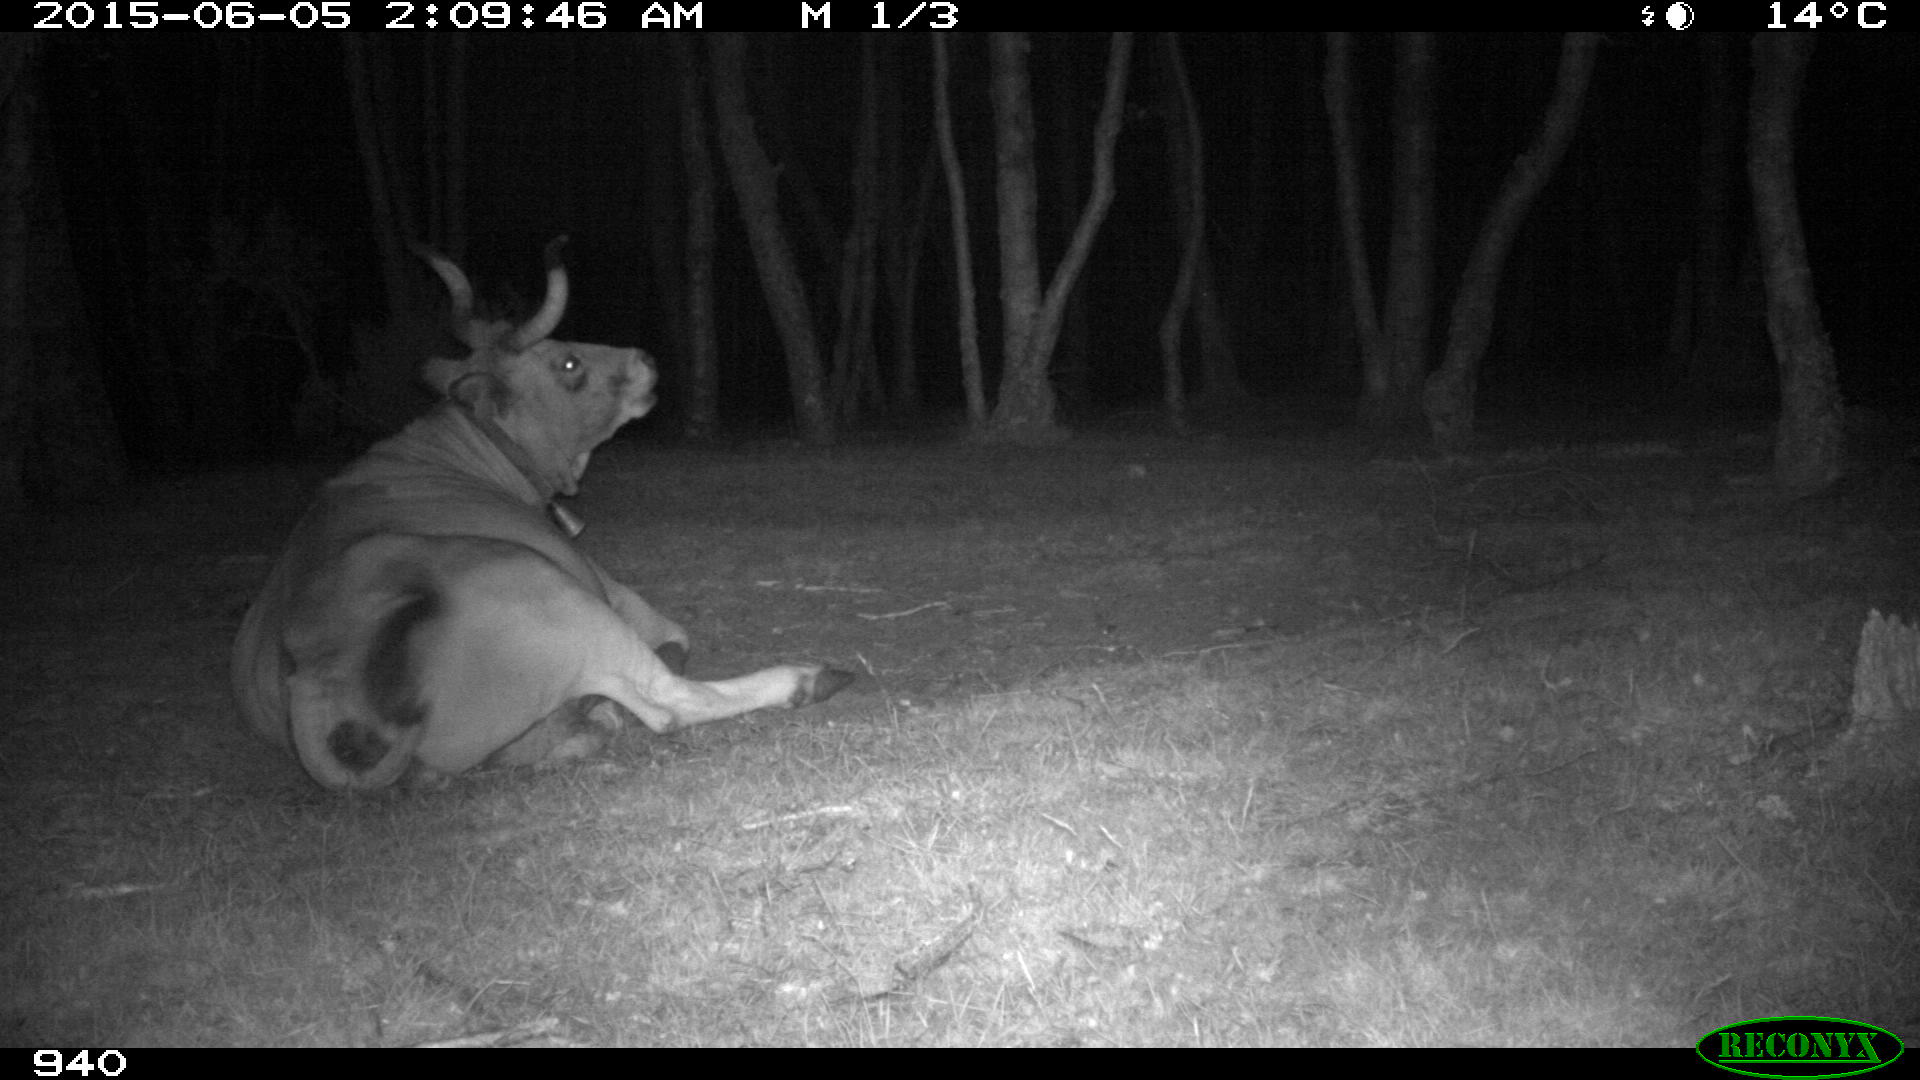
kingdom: Animalia
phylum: Chordata
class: Mammalia
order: Artiodactyla
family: Bovidae
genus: Bos
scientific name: Bos taurus
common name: Domesticated cattle
